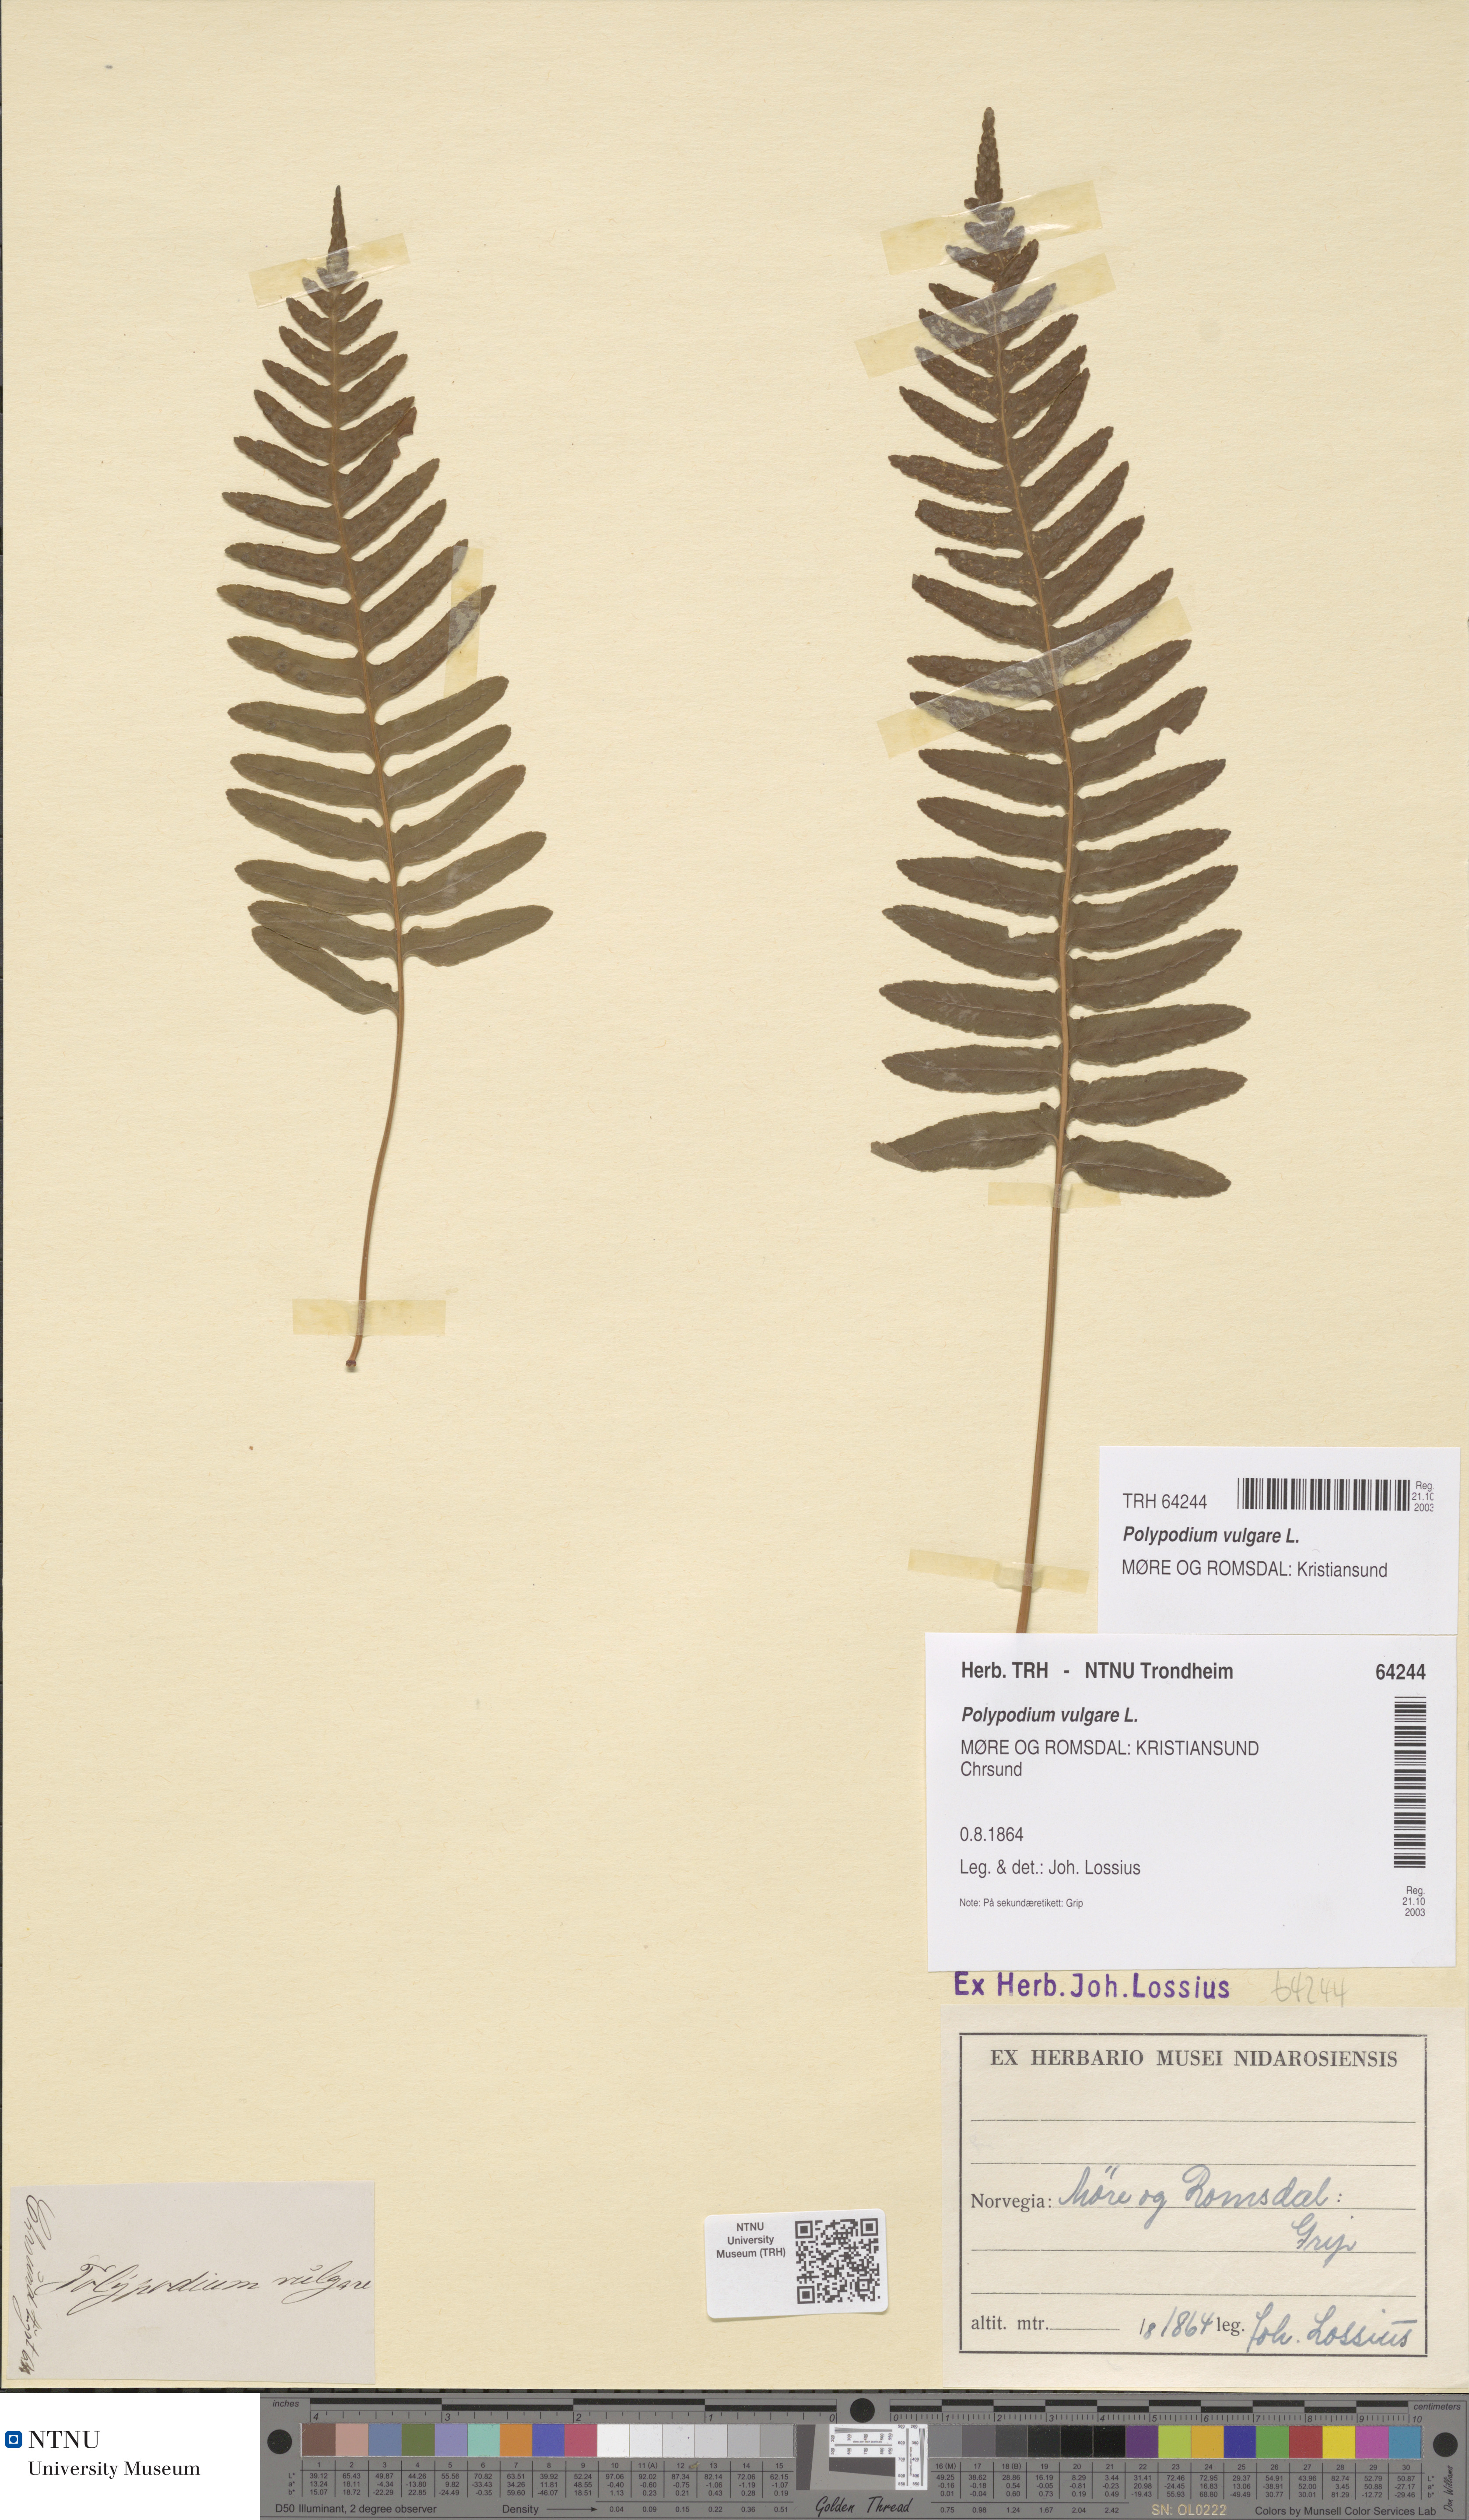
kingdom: Plantae
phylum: Tracheophyta
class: Polypodiopsida
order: Polypodiales
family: Polypodiaceae
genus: Polypodium
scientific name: Polypodium vulgare
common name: Common polypody
